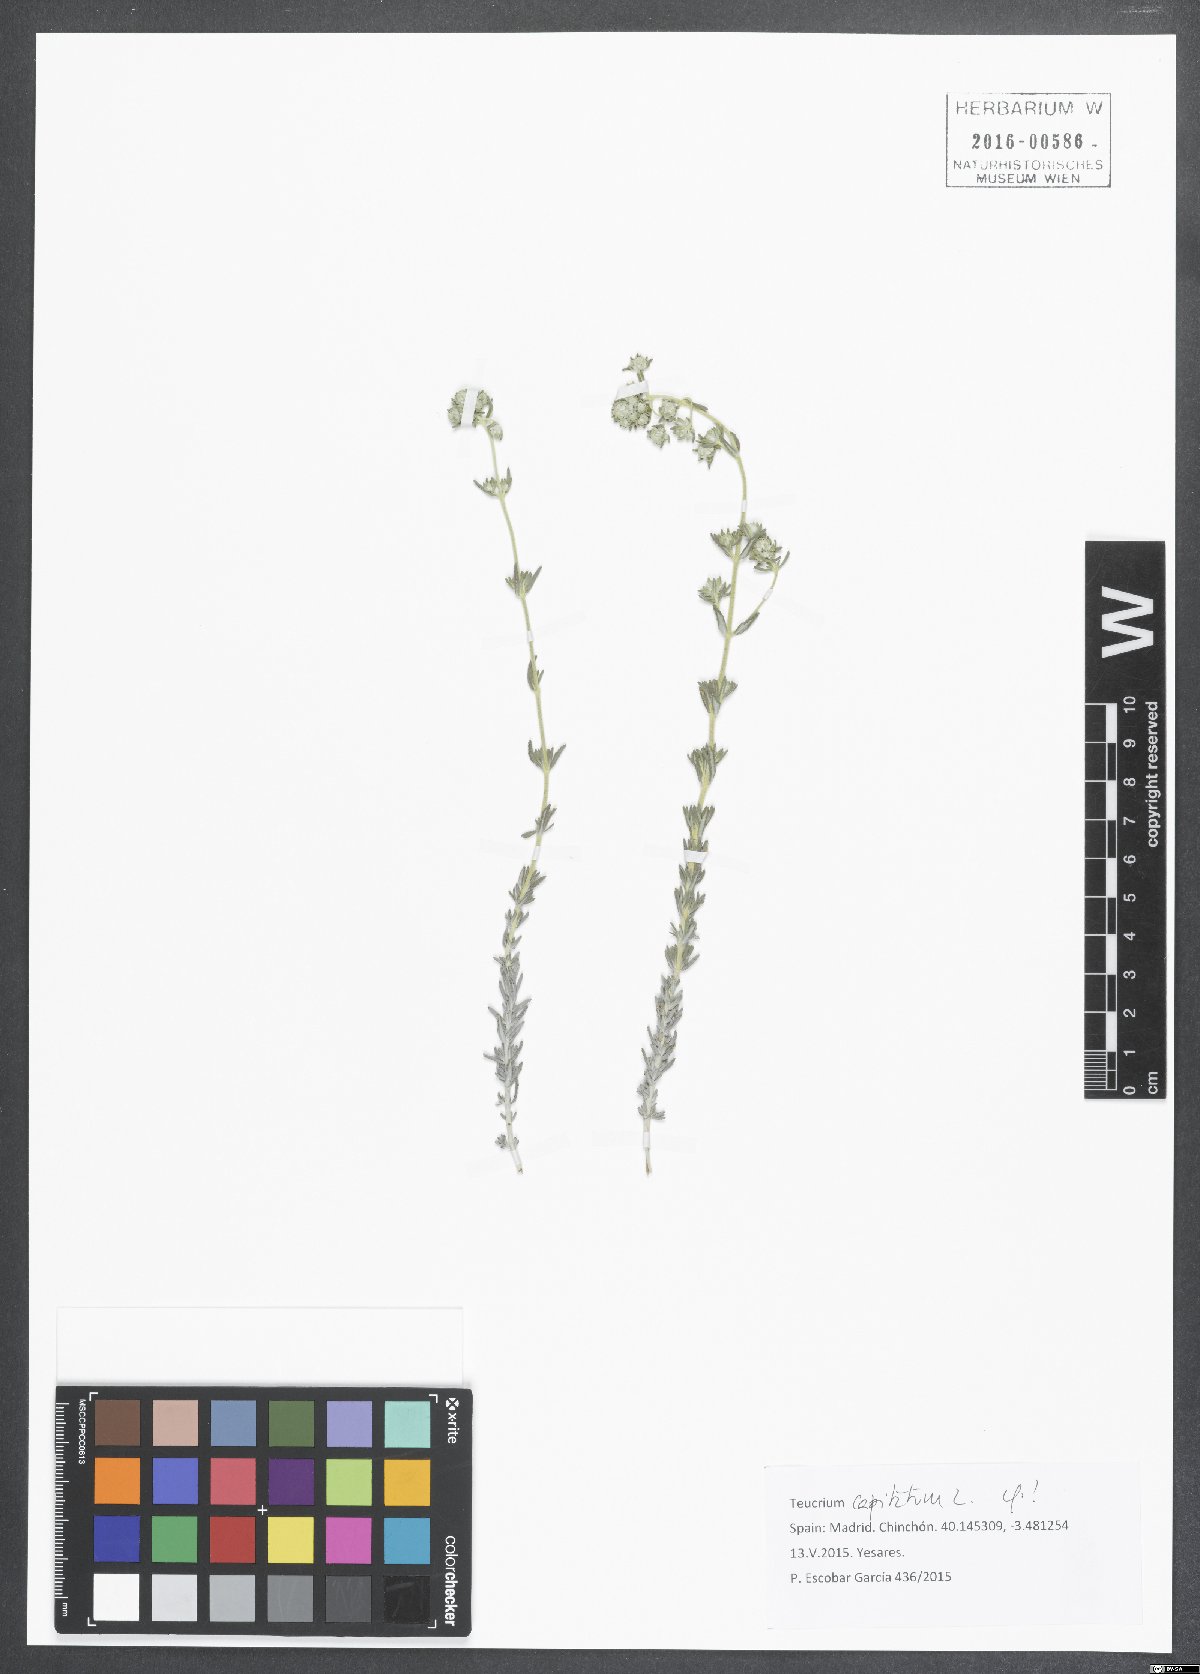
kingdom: Plantae
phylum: Tracheophyta
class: Magnoliopsida
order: Lamiales
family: Lamiaceae
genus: Teucrium
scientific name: Teucrium capitatum
